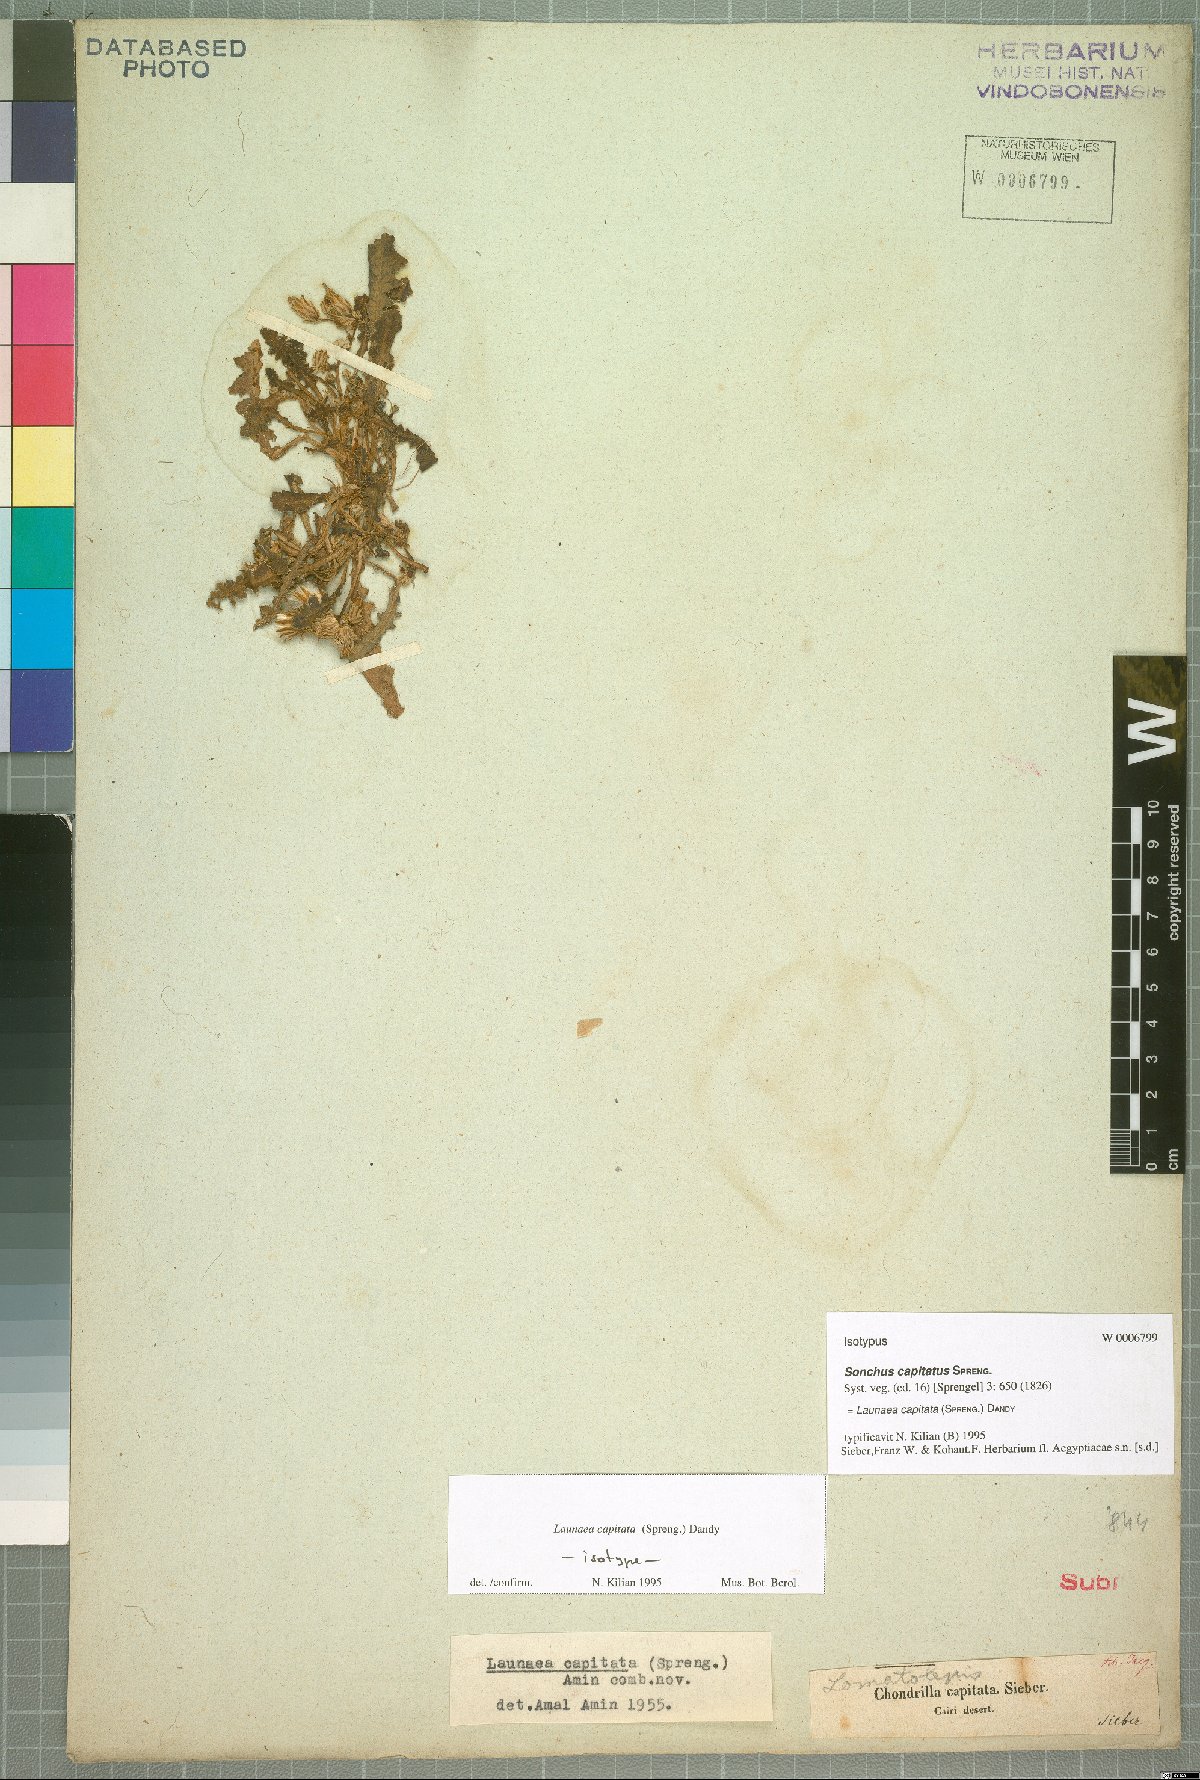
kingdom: Plantae
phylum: Tracheophyta
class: Magnoliopsida
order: Asterales
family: Asteraceae
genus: Launaea
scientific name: Launaea capitata
